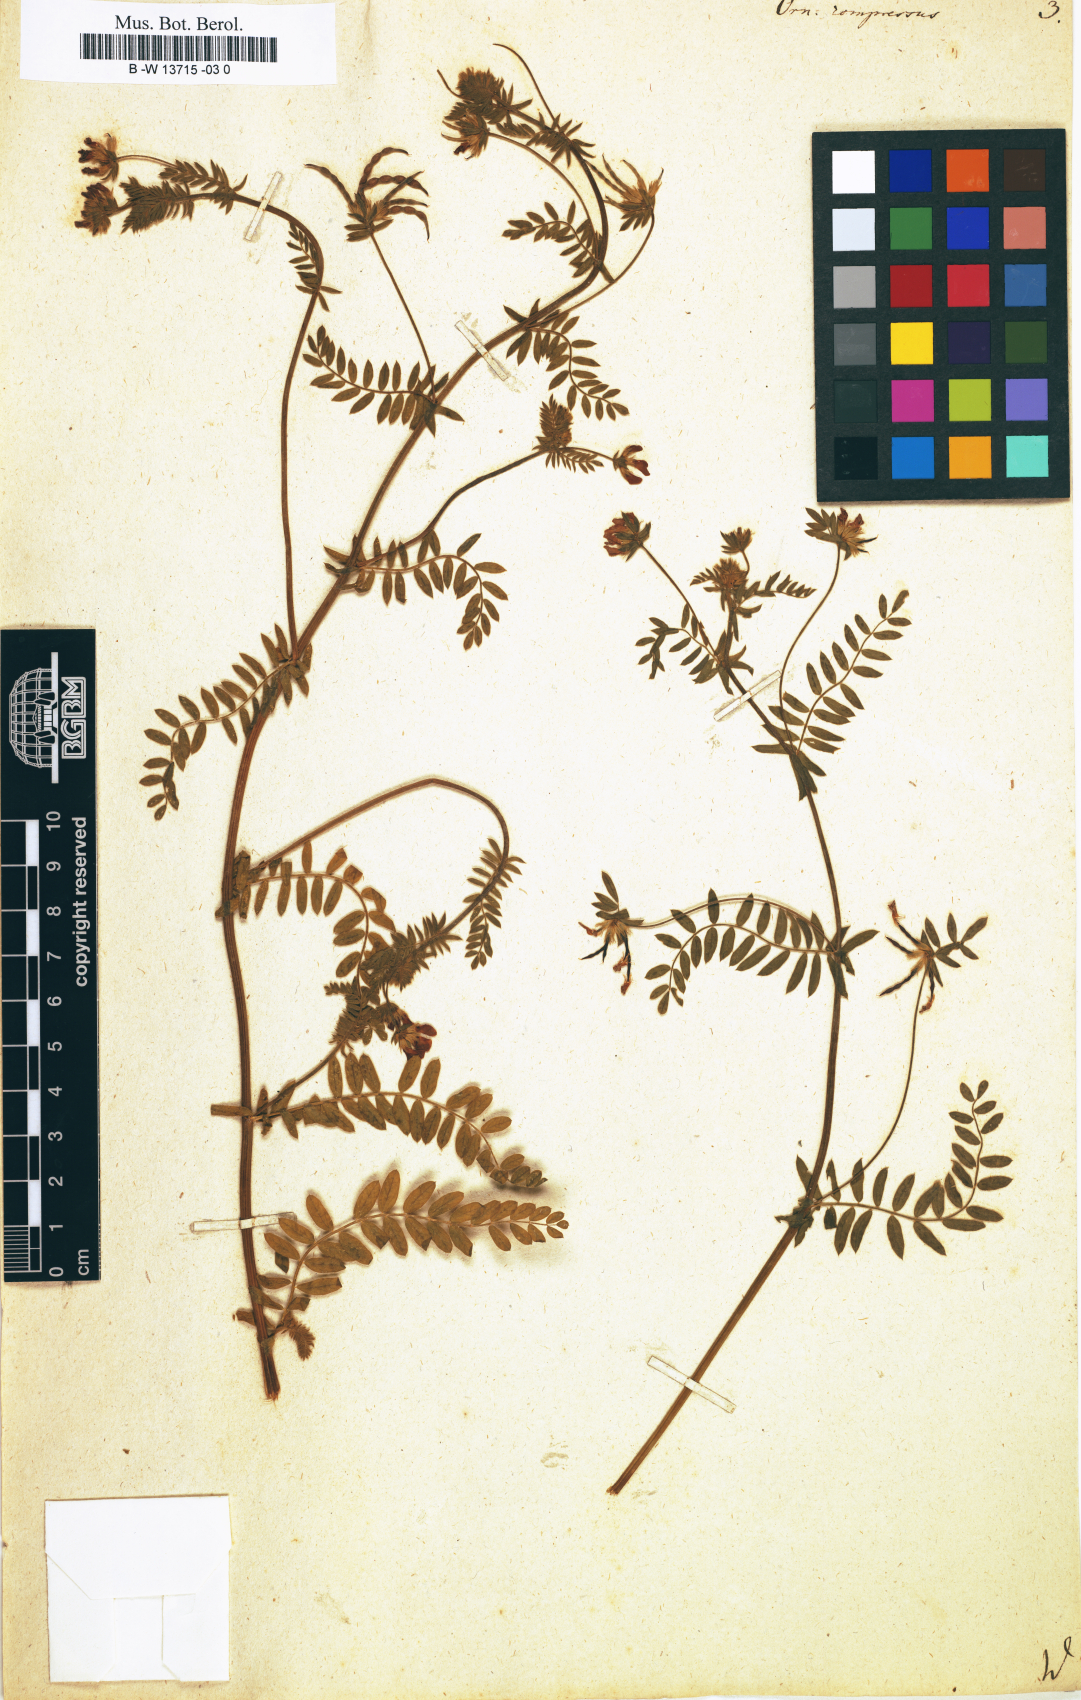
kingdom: Plantae
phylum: Tracheophyta
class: Magnoliopsida
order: Fabales
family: Fabaceae
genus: Ornithopus
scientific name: Ornithopus compressus
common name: Yellow serradella
